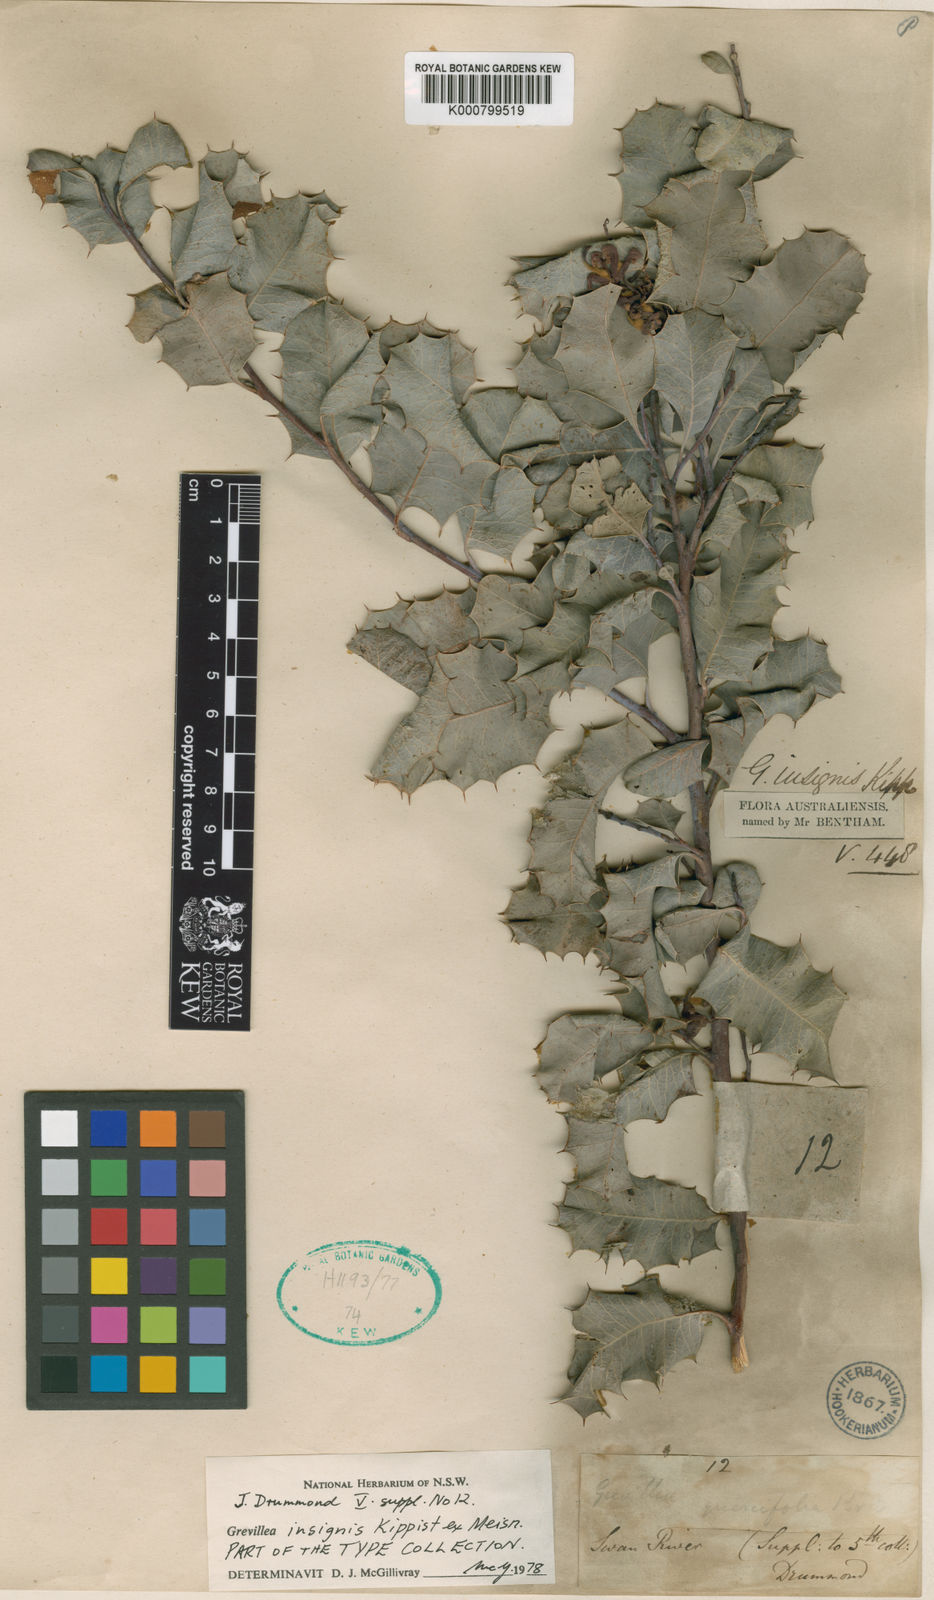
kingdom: Plantae
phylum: Tracheophyta
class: Magnoliopsida
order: Proteales
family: Proteaceae
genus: Grevillea
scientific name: Grevillea insignis
